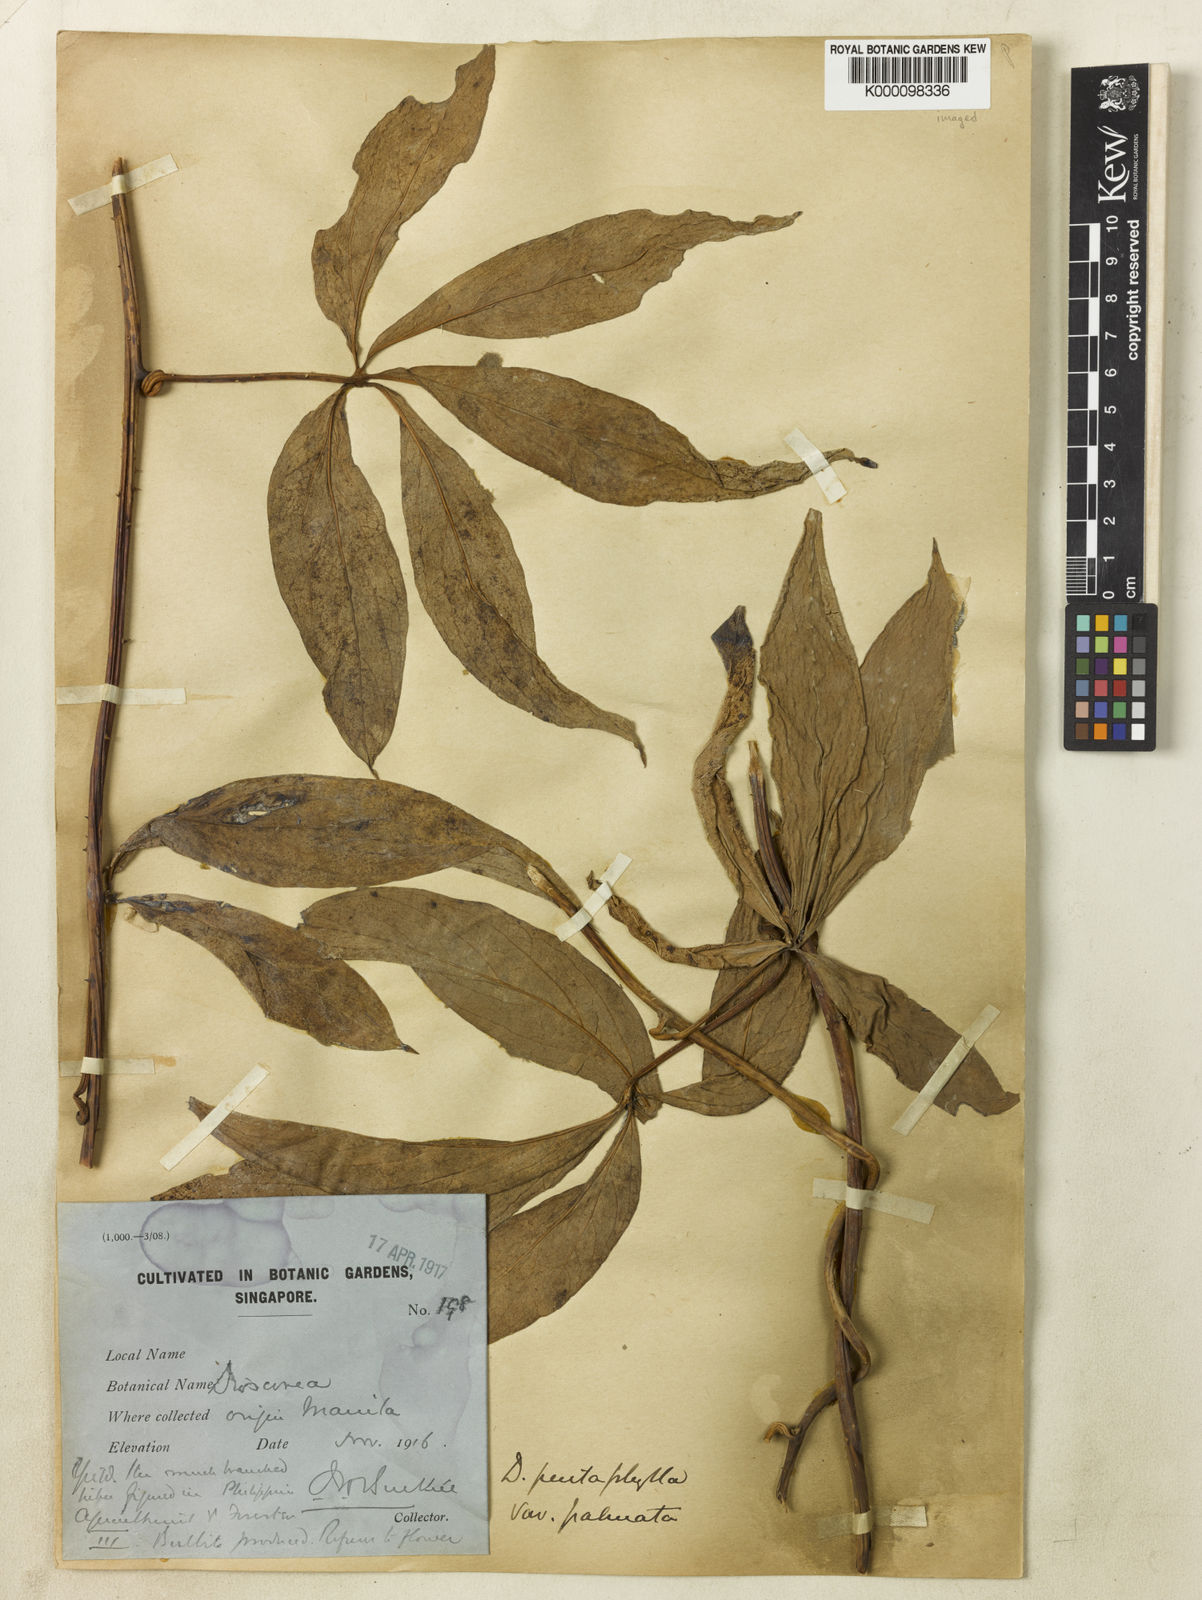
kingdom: Plantae
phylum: Tracheophyta
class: Liliopsida
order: Dioscoreales
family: Dioscoreaceae
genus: Dioscorea
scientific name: Dioscorea pentaphylla
